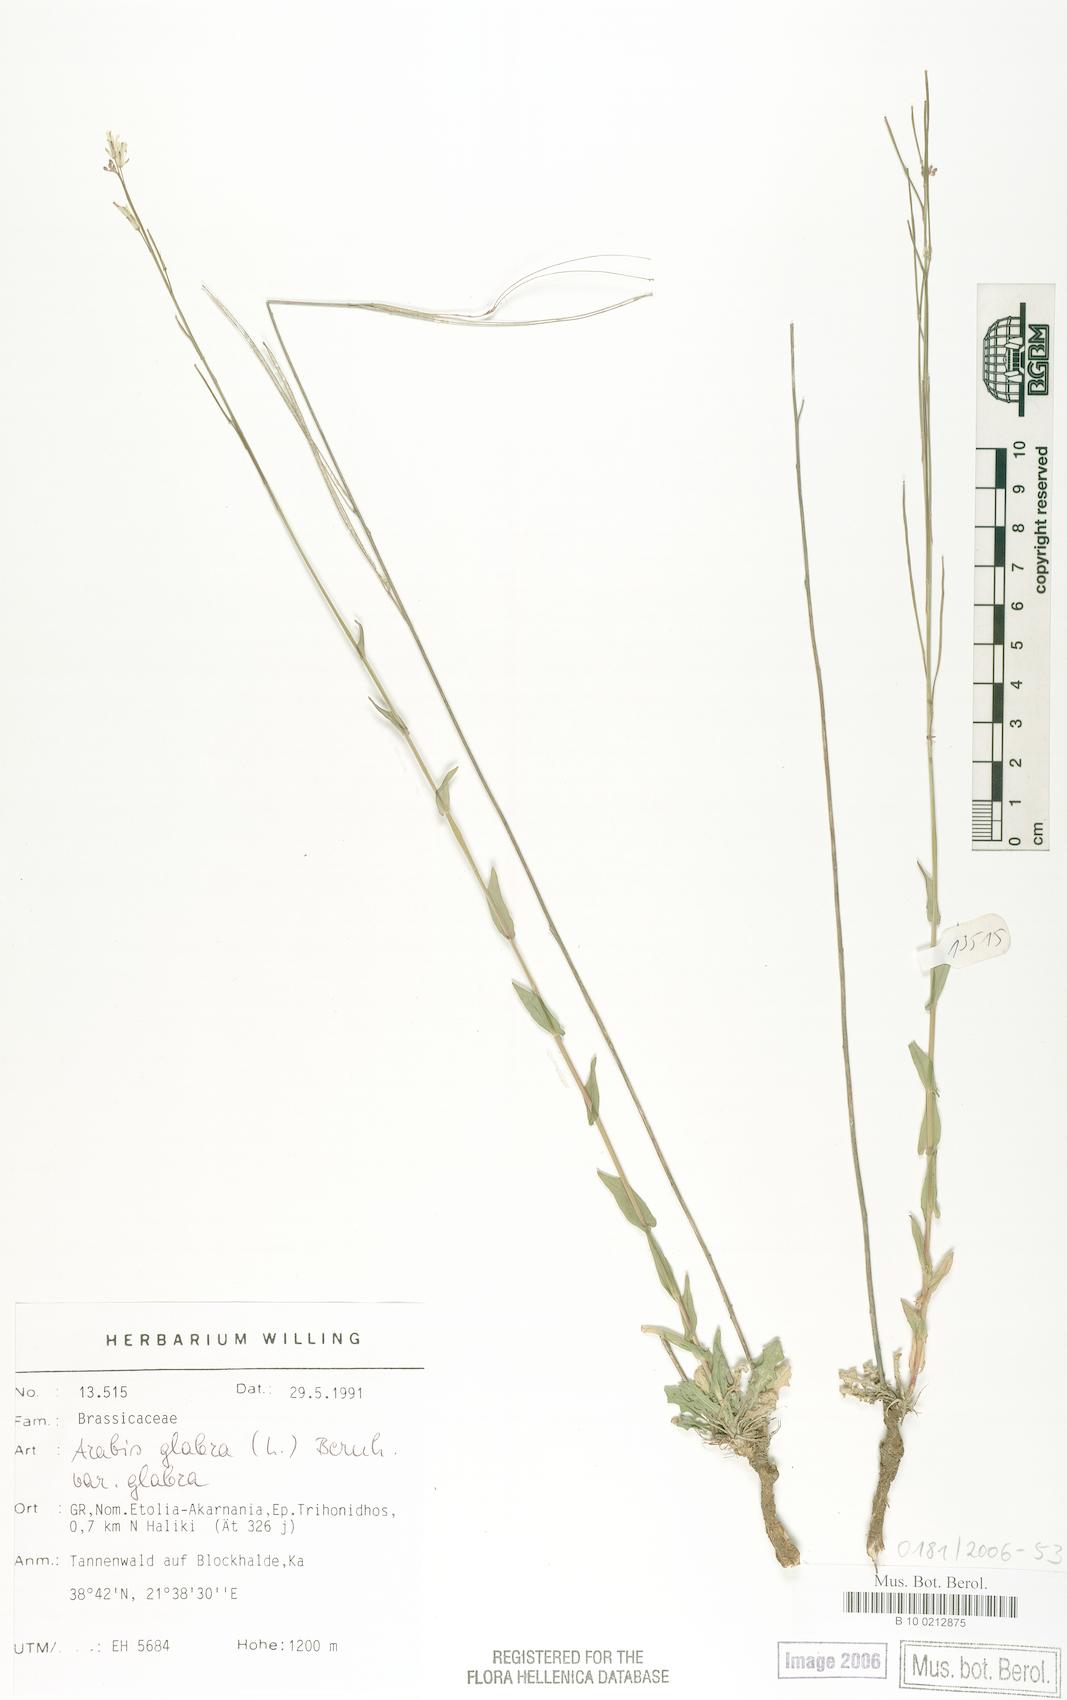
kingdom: Plantae
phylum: Tracheophyta
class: Magnoliopsida
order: Brassicales
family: Brassicaceae
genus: Turritis
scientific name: Turritis glabra
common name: Tower rockcress
